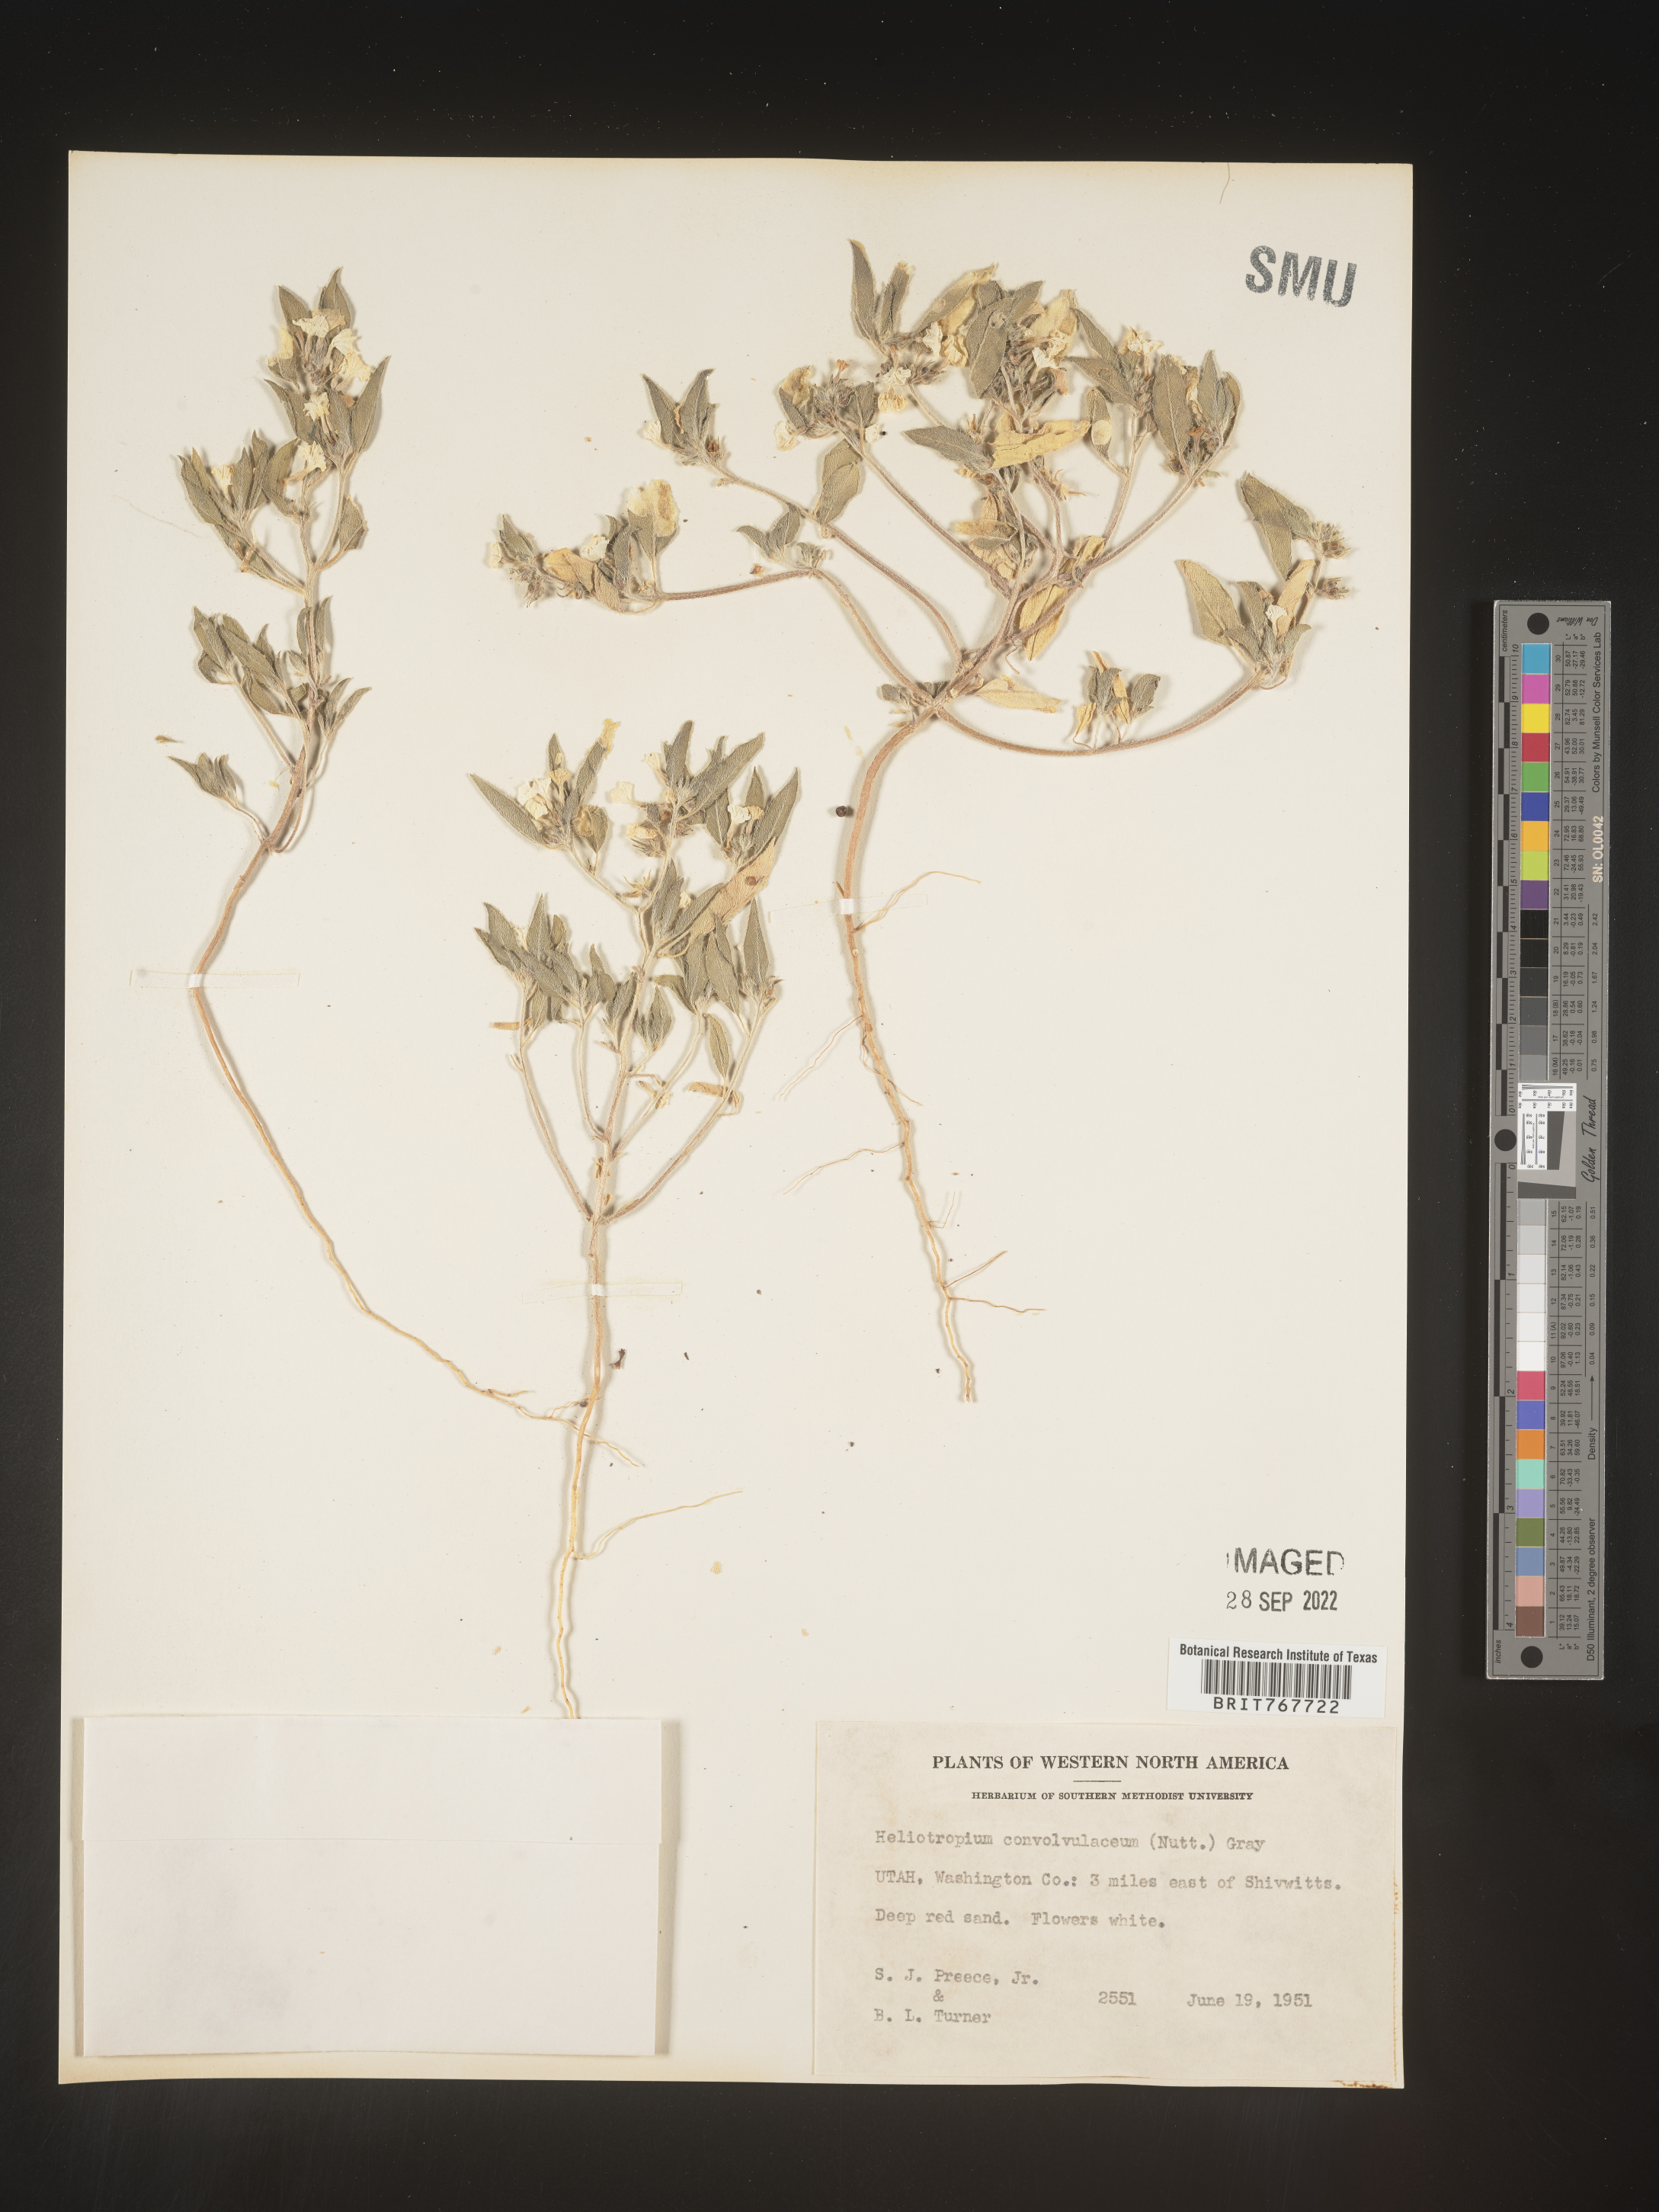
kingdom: Plantae
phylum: Tracheophyta
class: Magnoliopsida
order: Boraginales
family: Heliotropiaceae
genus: Heliotropium
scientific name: Heliotropium
